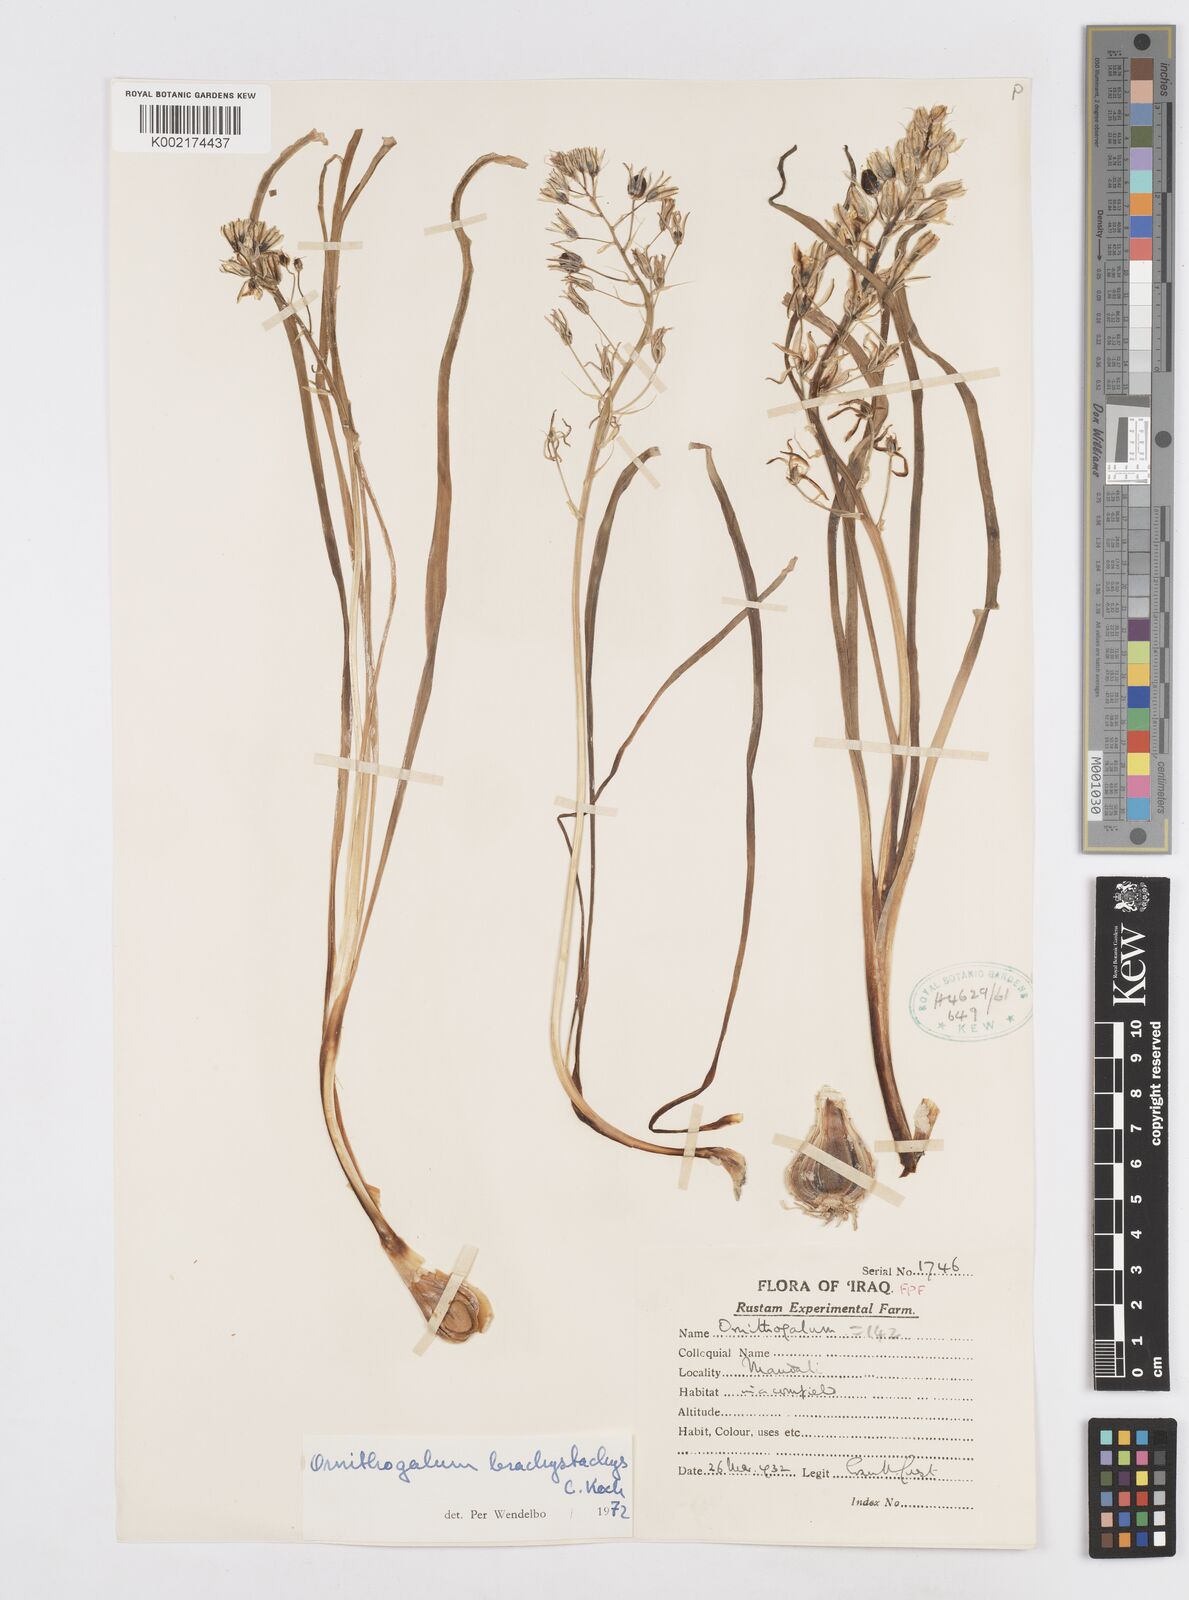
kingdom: Plantae
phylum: Tracheophyta
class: Liliopsida
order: Asparagales
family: Asparagaceae
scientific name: Asparagaceae
